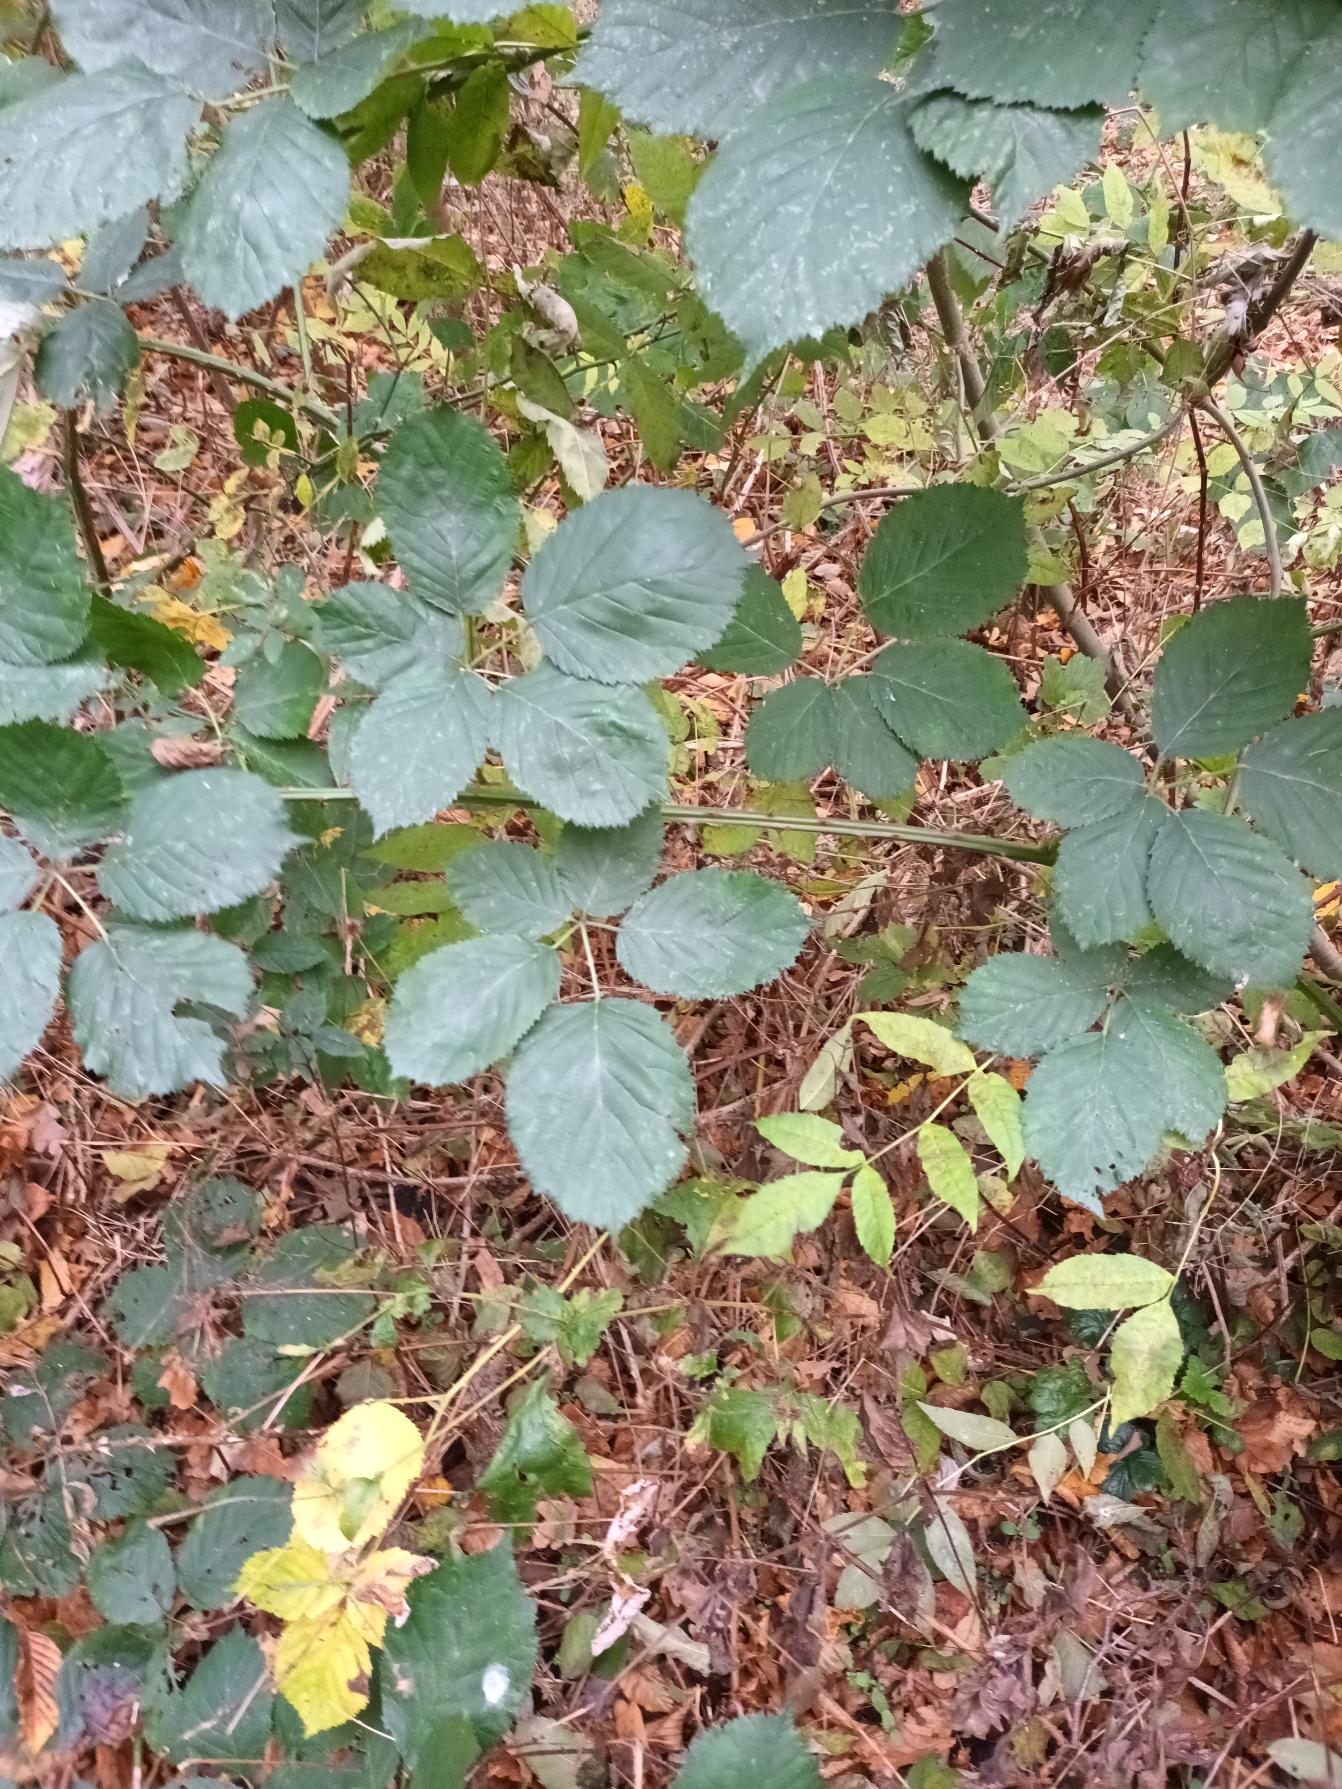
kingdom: Plantae
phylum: Tracheophyta
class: Magnoliopsida
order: Rosales
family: Rosaceae
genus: Rubus
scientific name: Rubus armeniacus
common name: Armensk brombær
